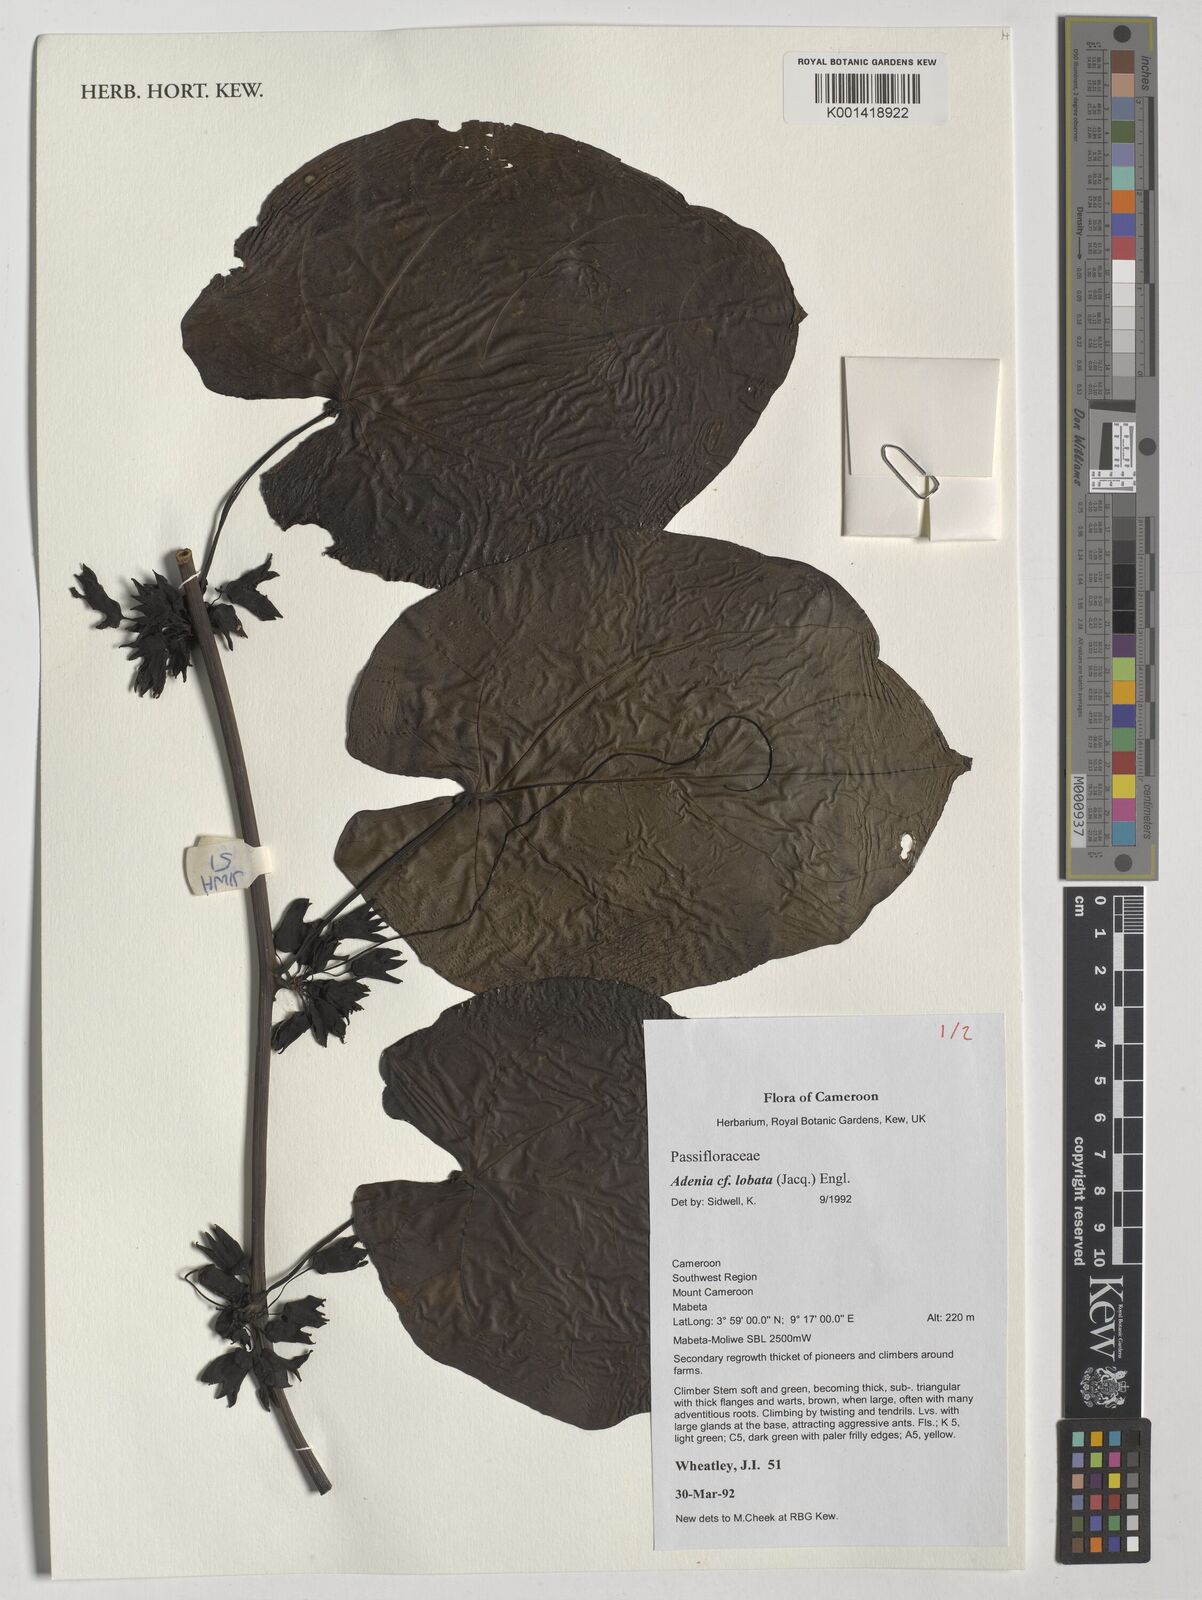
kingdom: Plantae
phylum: Tracheophyta
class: Magnoliopsida
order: Malpighiales
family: Passifloraceae
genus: Adenia
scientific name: Adenia lobata
